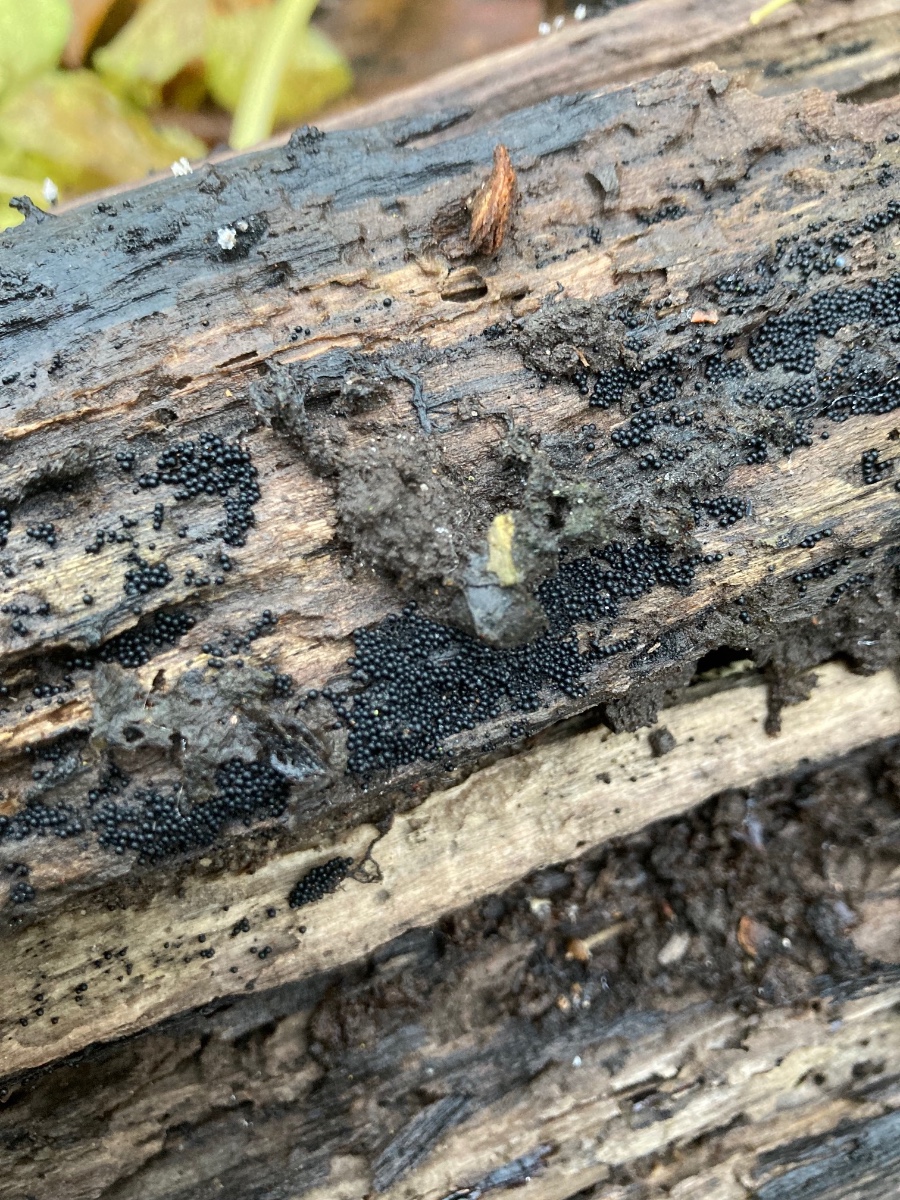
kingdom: Fungi
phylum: Ascomycota
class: Sordariomycetes
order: Sordariales
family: Helminthosphaeriaceae
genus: Ruzenia
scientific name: Ruzenia spermoides
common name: glat børstekerne
